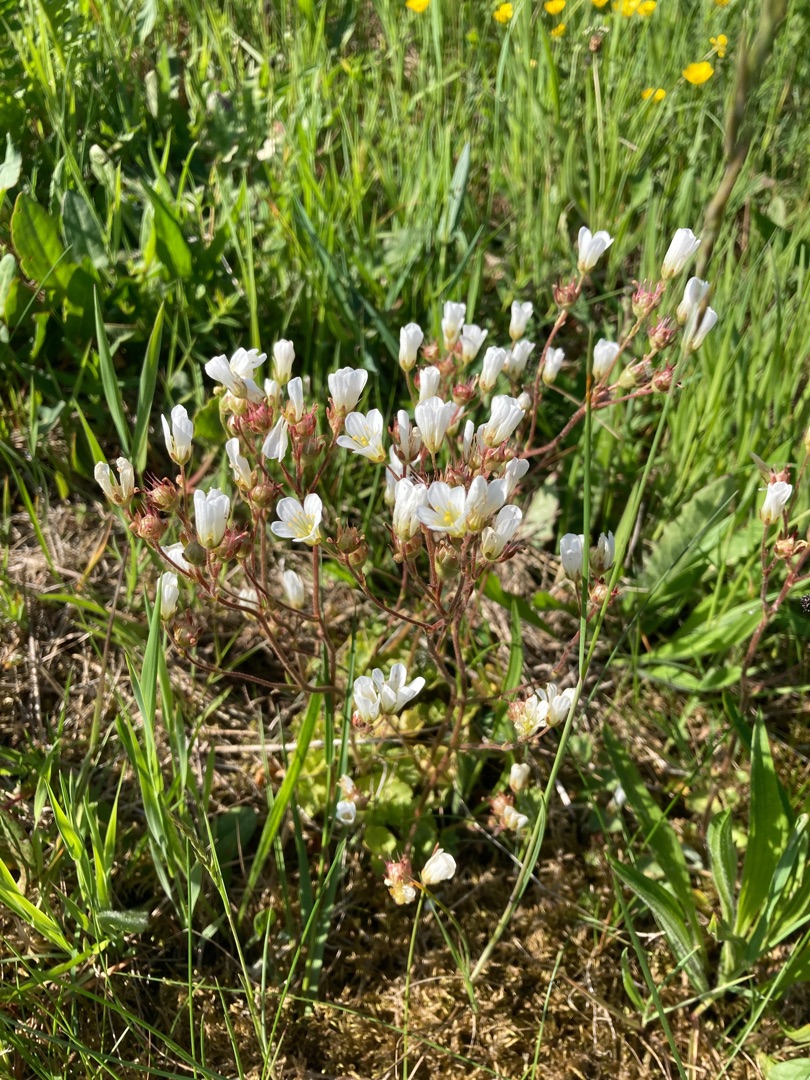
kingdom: Plantae
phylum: Tracheophyta
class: Magnoliopsida
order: Saxifragales
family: Saxifragaceae
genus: Saxifraga
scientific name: Saxifraga granulata
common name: Kornet stenbræk
